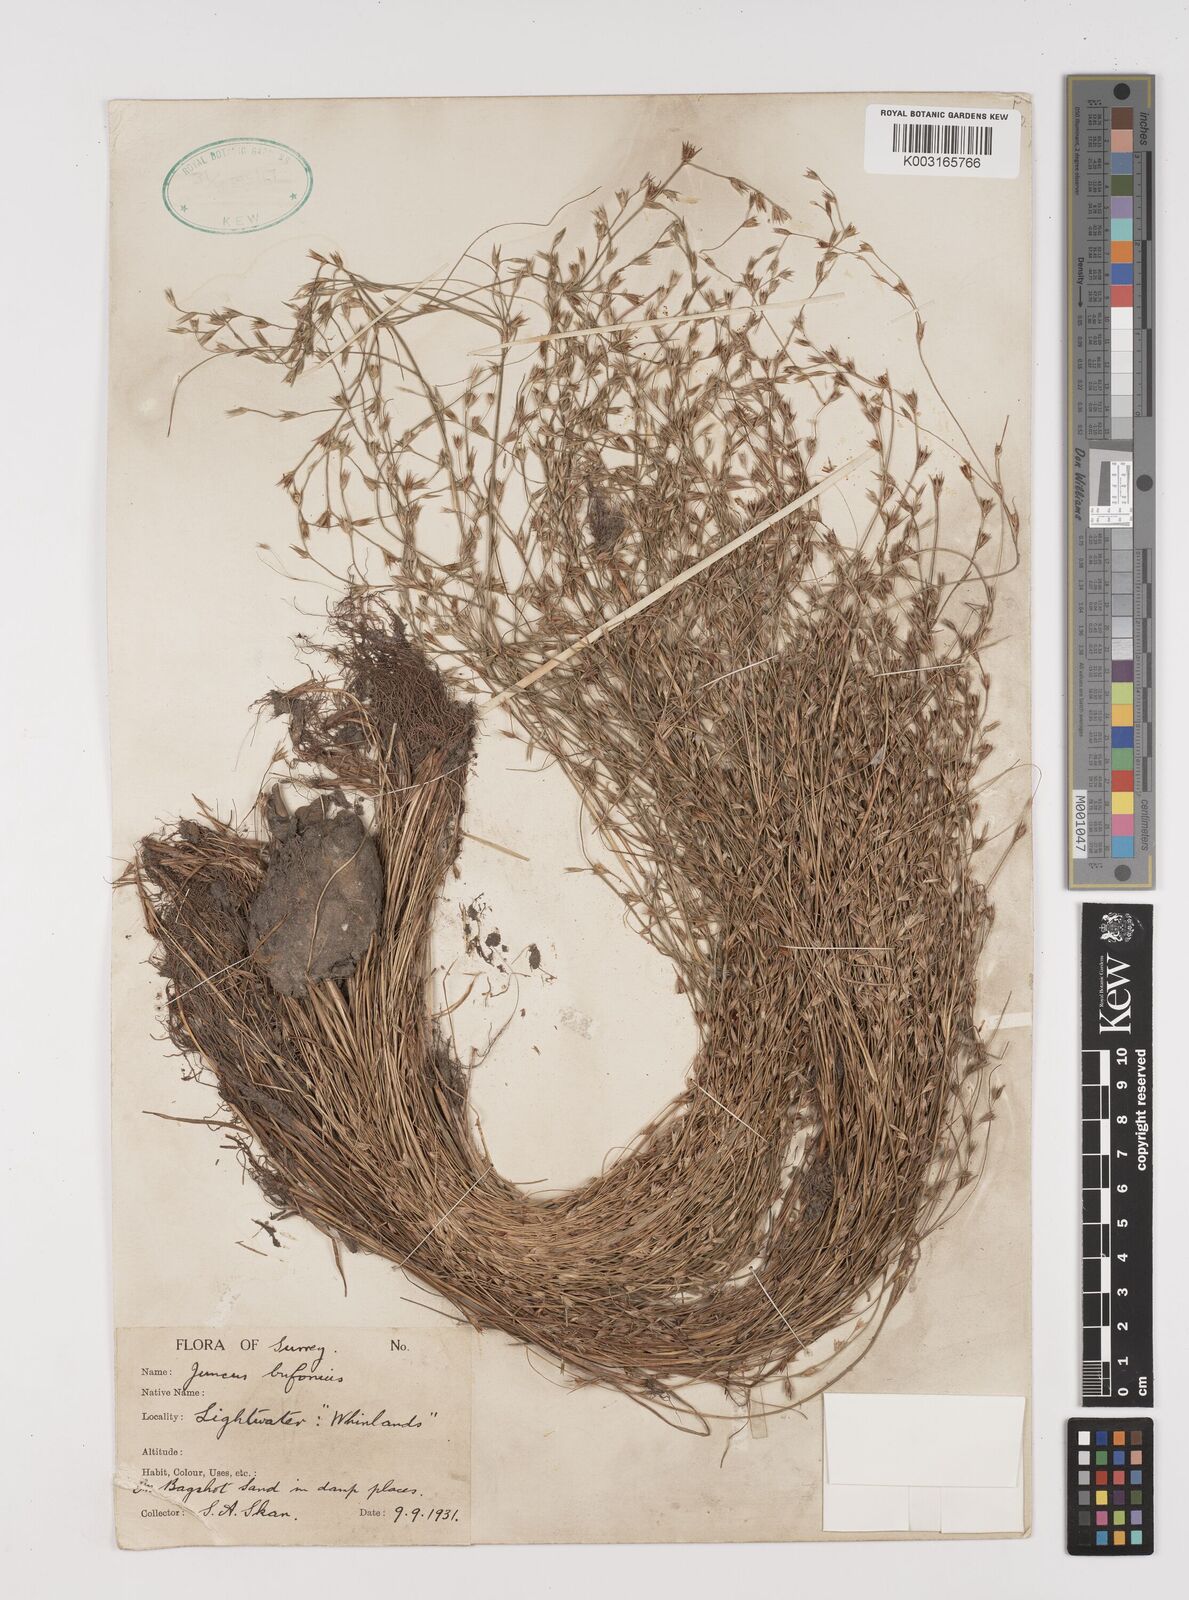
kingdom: Plantae
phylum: Tracheophyta
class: Liliopsida
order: Poales
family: Juncaceae
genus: Juncus
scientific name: Juncus bufonius
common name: Toad rush
